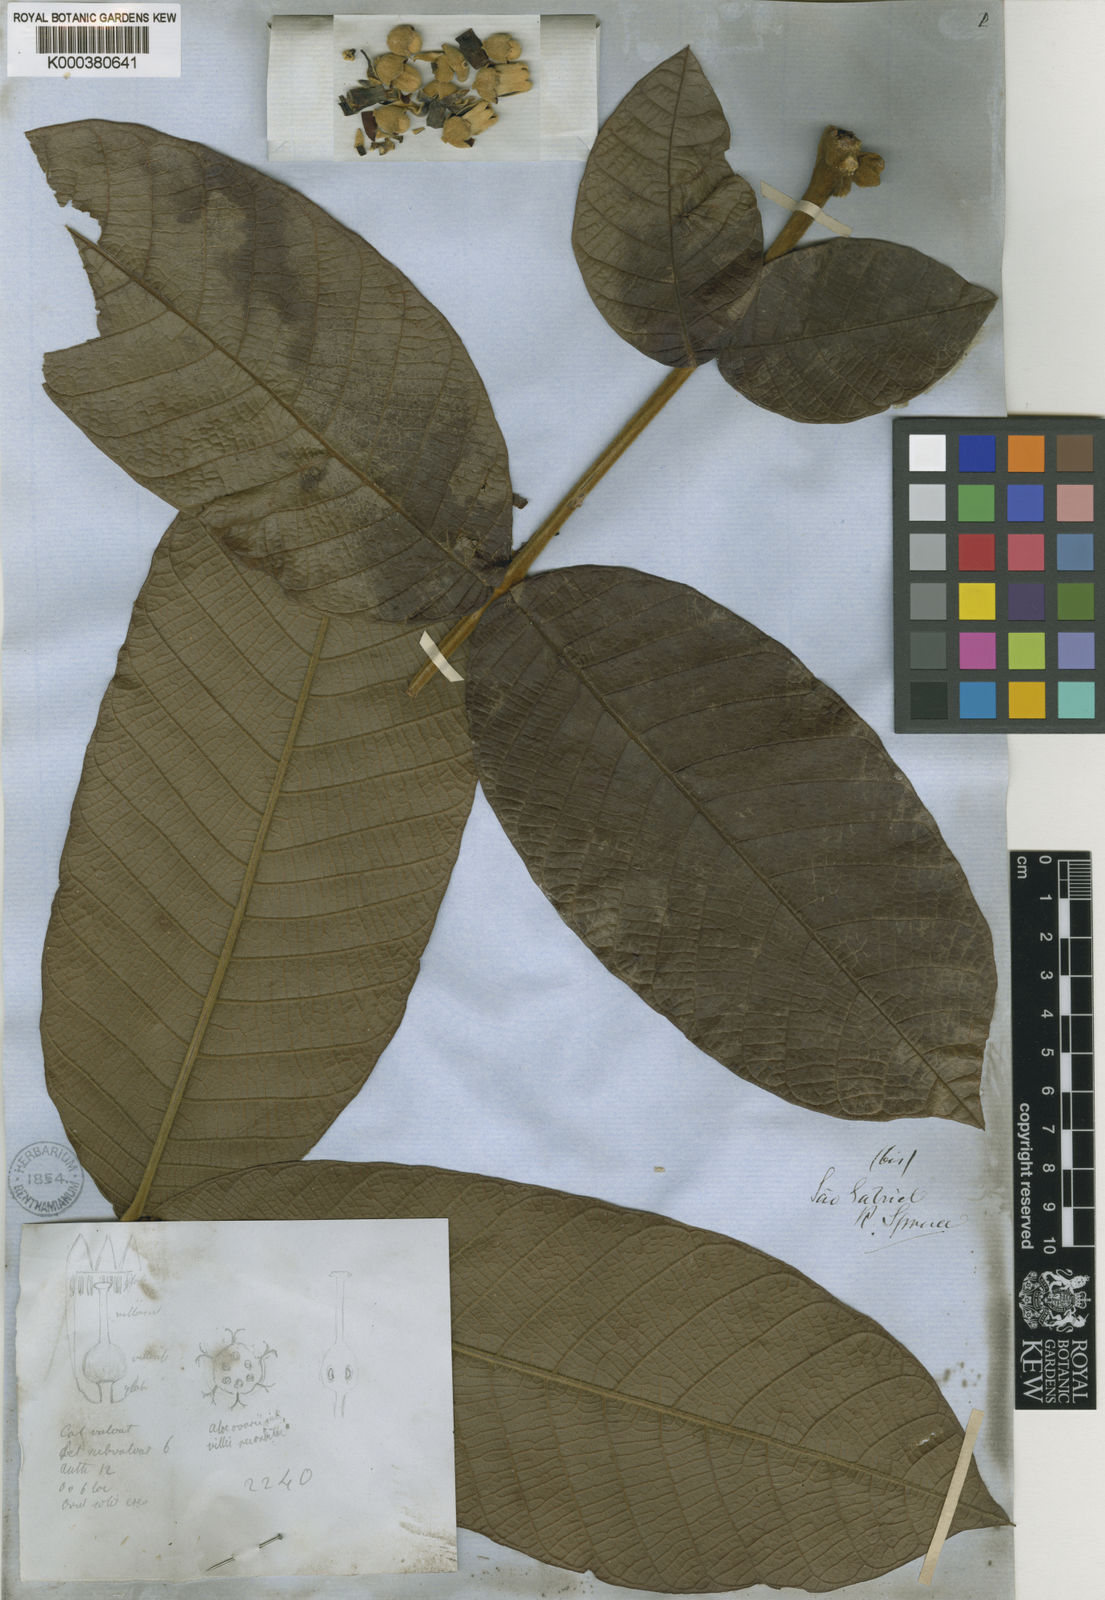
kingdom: Plantae
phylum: Tracheophyta
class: Magnoliopsida
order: Sapindales
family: Meliaceae
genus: Guarea
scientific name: Guarea sprucei
